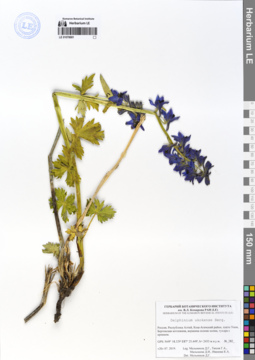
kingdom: Plantae
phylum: Tracheophyta
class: Magnoliopsida
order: Ranunculales
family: Ranunculaceae
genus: Delphinium
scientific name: Delphinium ukokense
